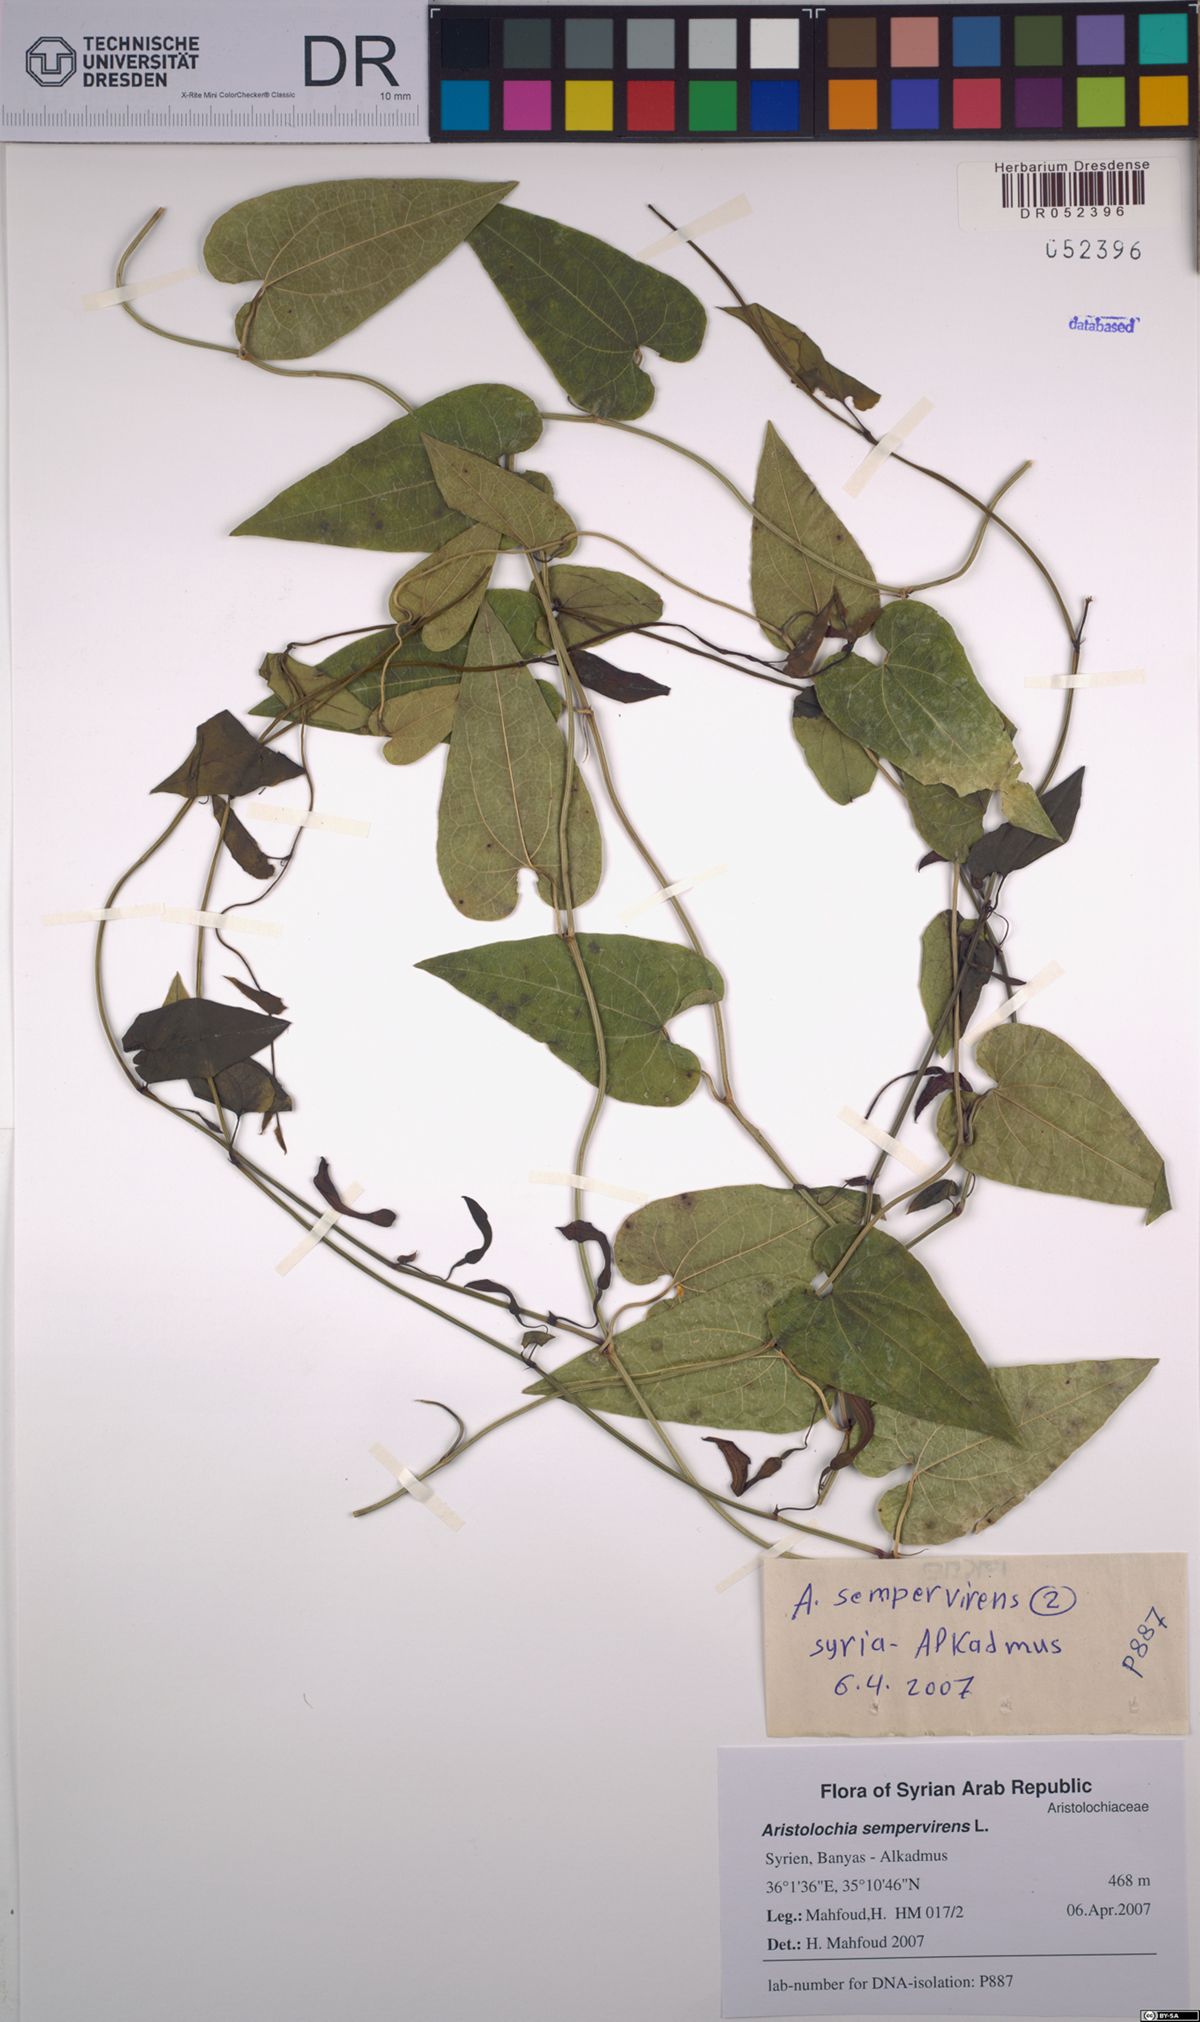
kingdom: Plantae
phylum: Tracheophyta
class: Magnoliopsida
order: Piperales
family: Aristolochiaceae
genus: Aristolochia
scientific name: Aristolochia sempervirens
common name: Long birthwort
